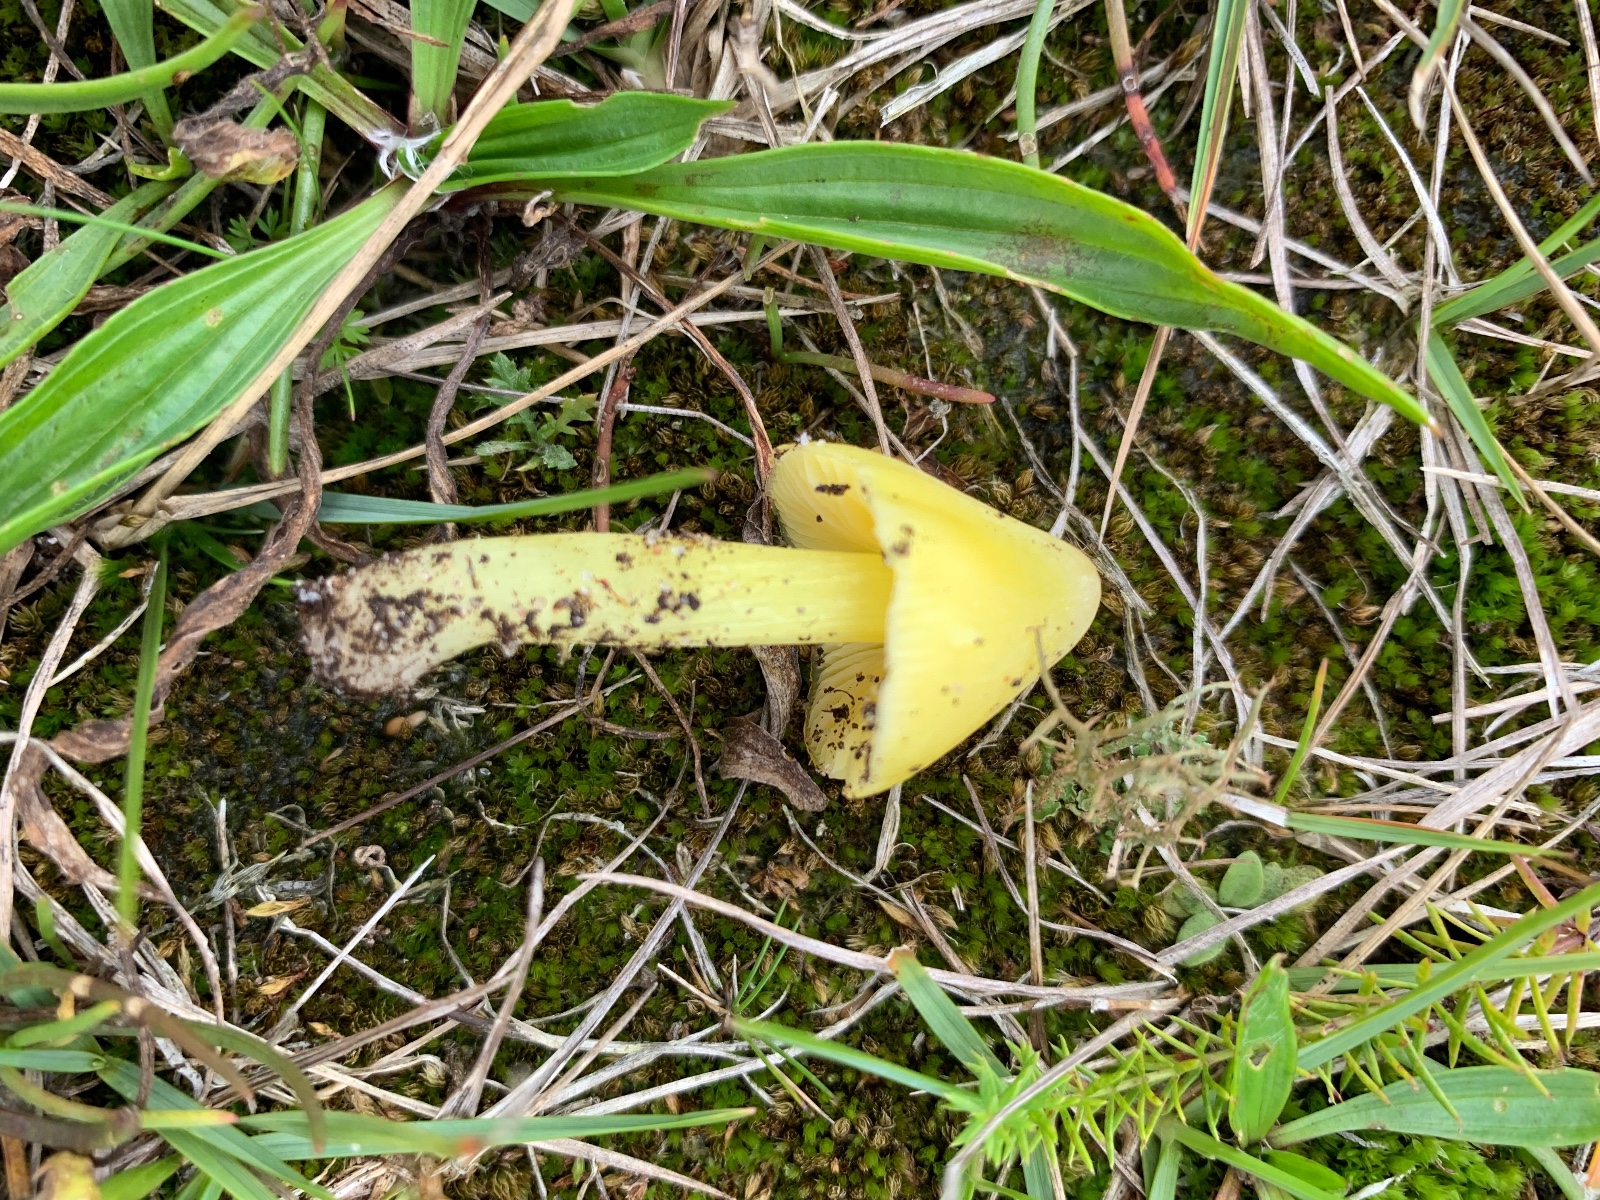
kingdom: Fungi
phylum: Basidiomycota
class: Agaricomycetes
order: Agaricales
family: Hygrophoraceae
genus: Hygrocybe
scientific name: Hygrocybe acutoconica
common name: spidspuklet vokshat
